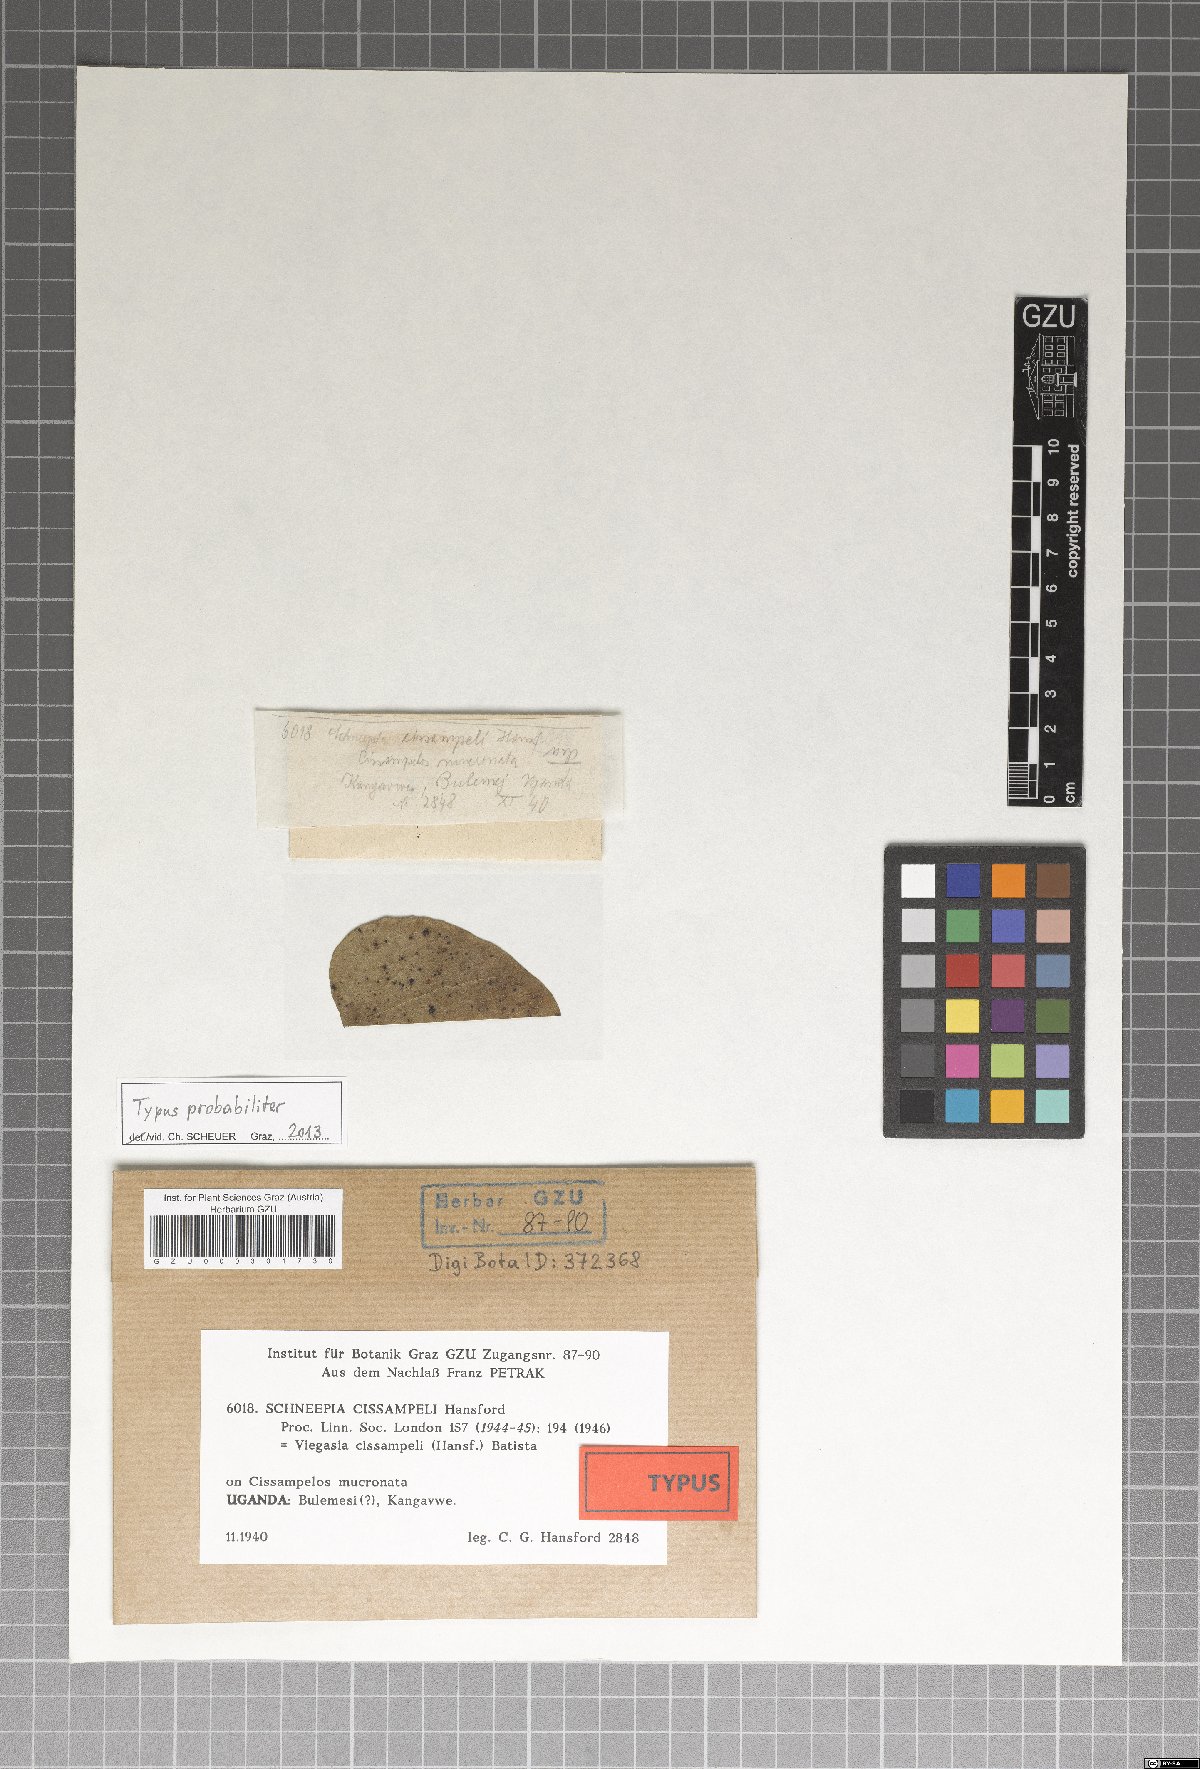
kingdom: Fungi
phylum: Ascomycota
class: Dothideomycetes
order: Asterinales
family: Asterinaceae
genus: Viegasia
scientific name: Viegasia cissampeli
